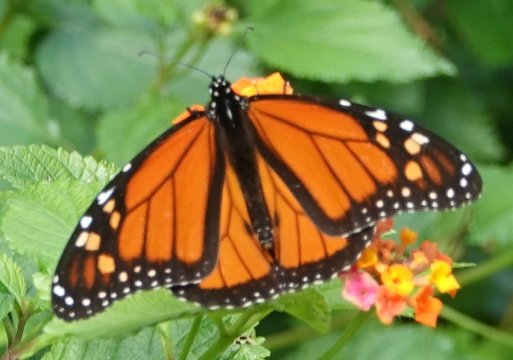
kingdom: Animalia
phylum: Arthropoda
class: Insecta
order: Lepidoptera
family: Nymphalidae
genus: Danaus
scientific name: Danaus plexippus
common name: Monarch
